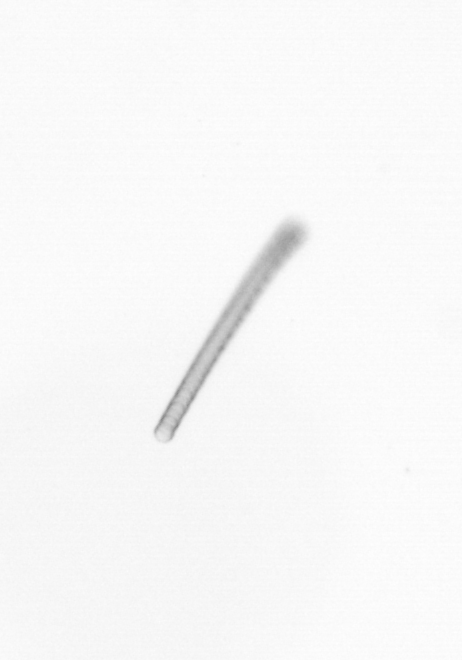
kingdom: Chromista
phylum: Ochrophyta
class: Bacillariophyceae
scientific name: Bacillariophyceae
